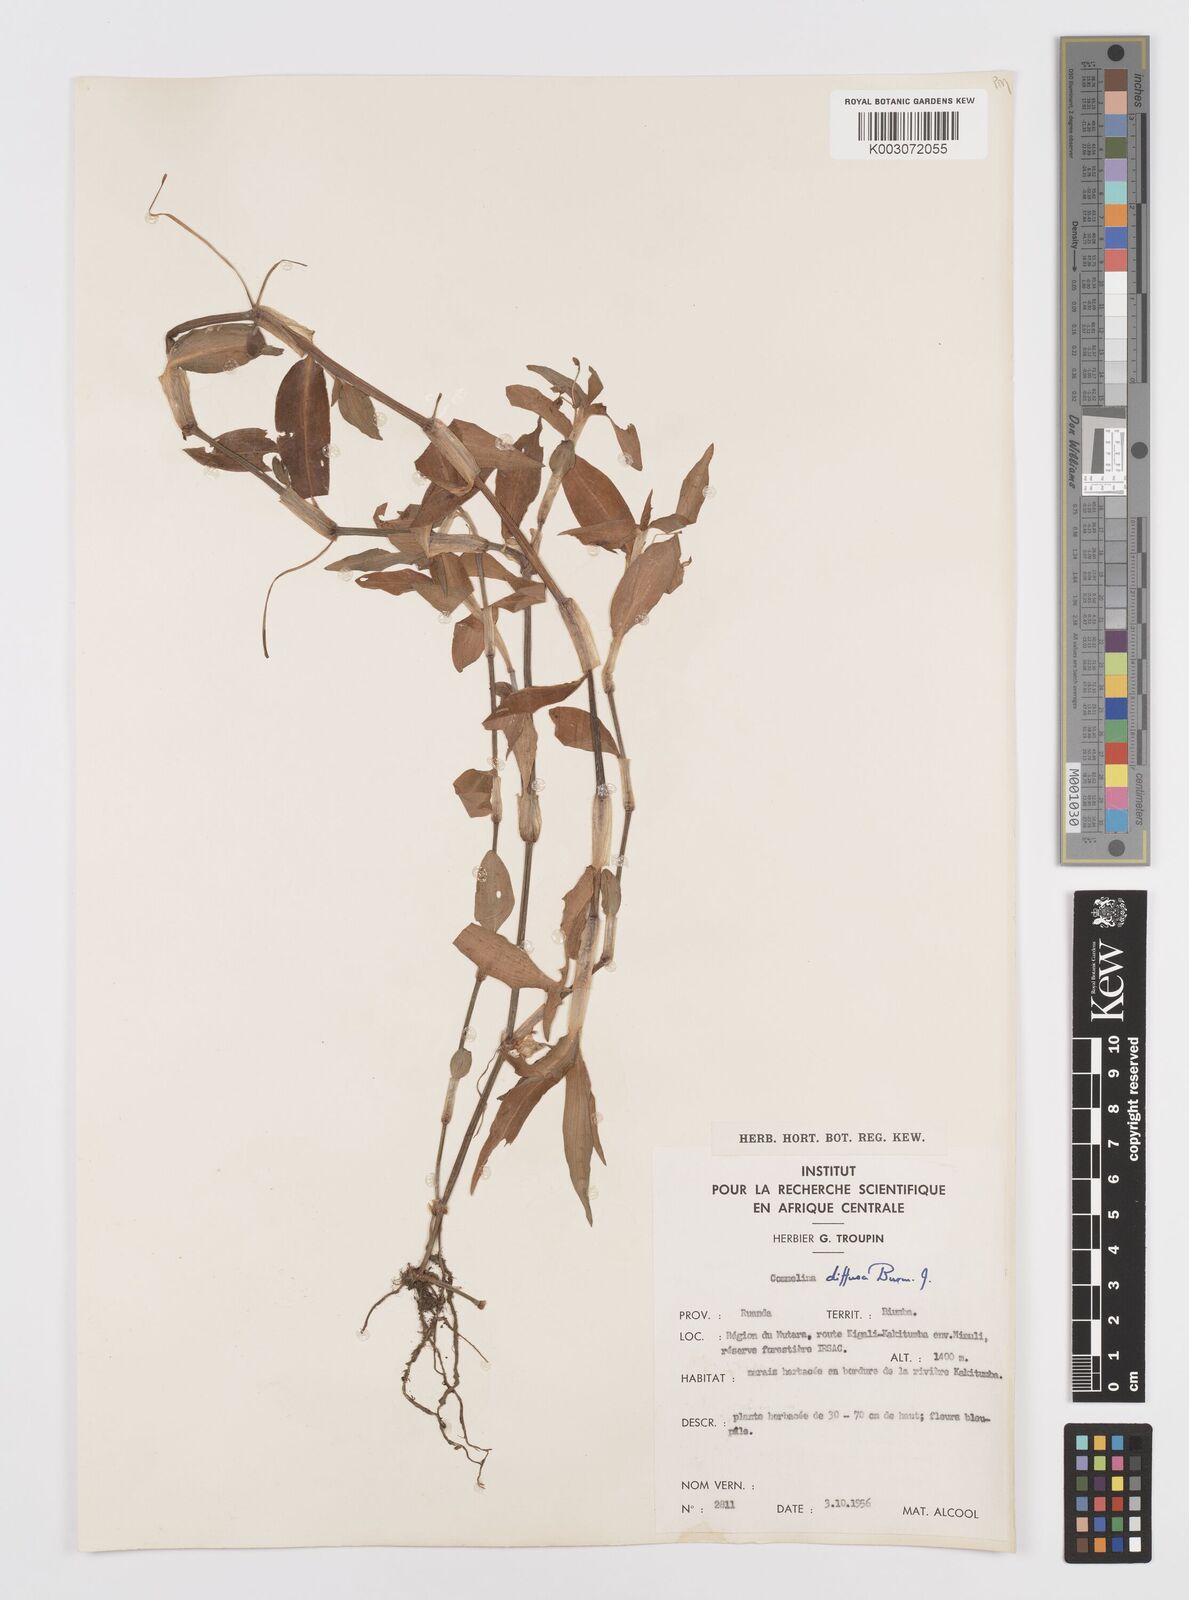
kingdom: Plantae
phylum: Tracheophyta
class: Liliopsida
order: Commelinales
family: Commelinaceae
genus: Commelina
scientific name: Commelina diffusa
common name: Climbing dayflower
